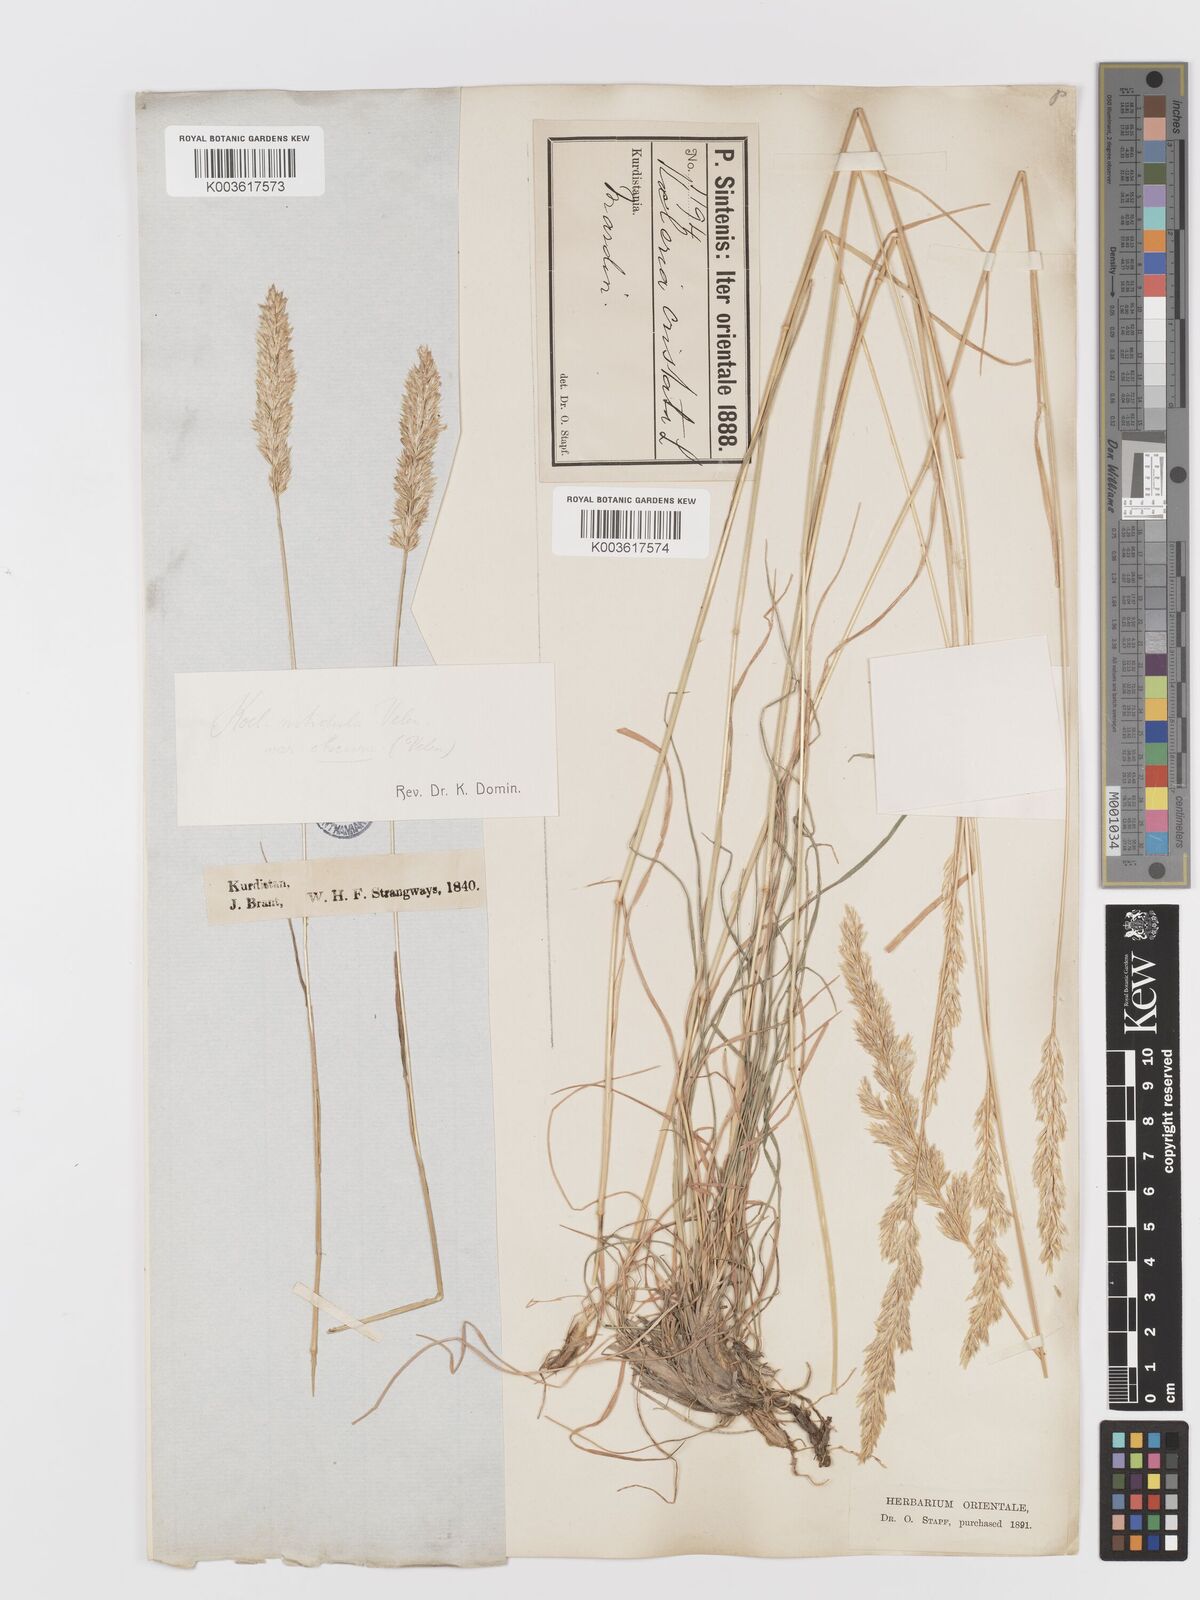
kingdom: Plantae
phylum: Tracheophyta
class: Liliopsida
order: Poales
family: Poaceae
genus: Koeleria
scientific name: Koeleria nitidula
